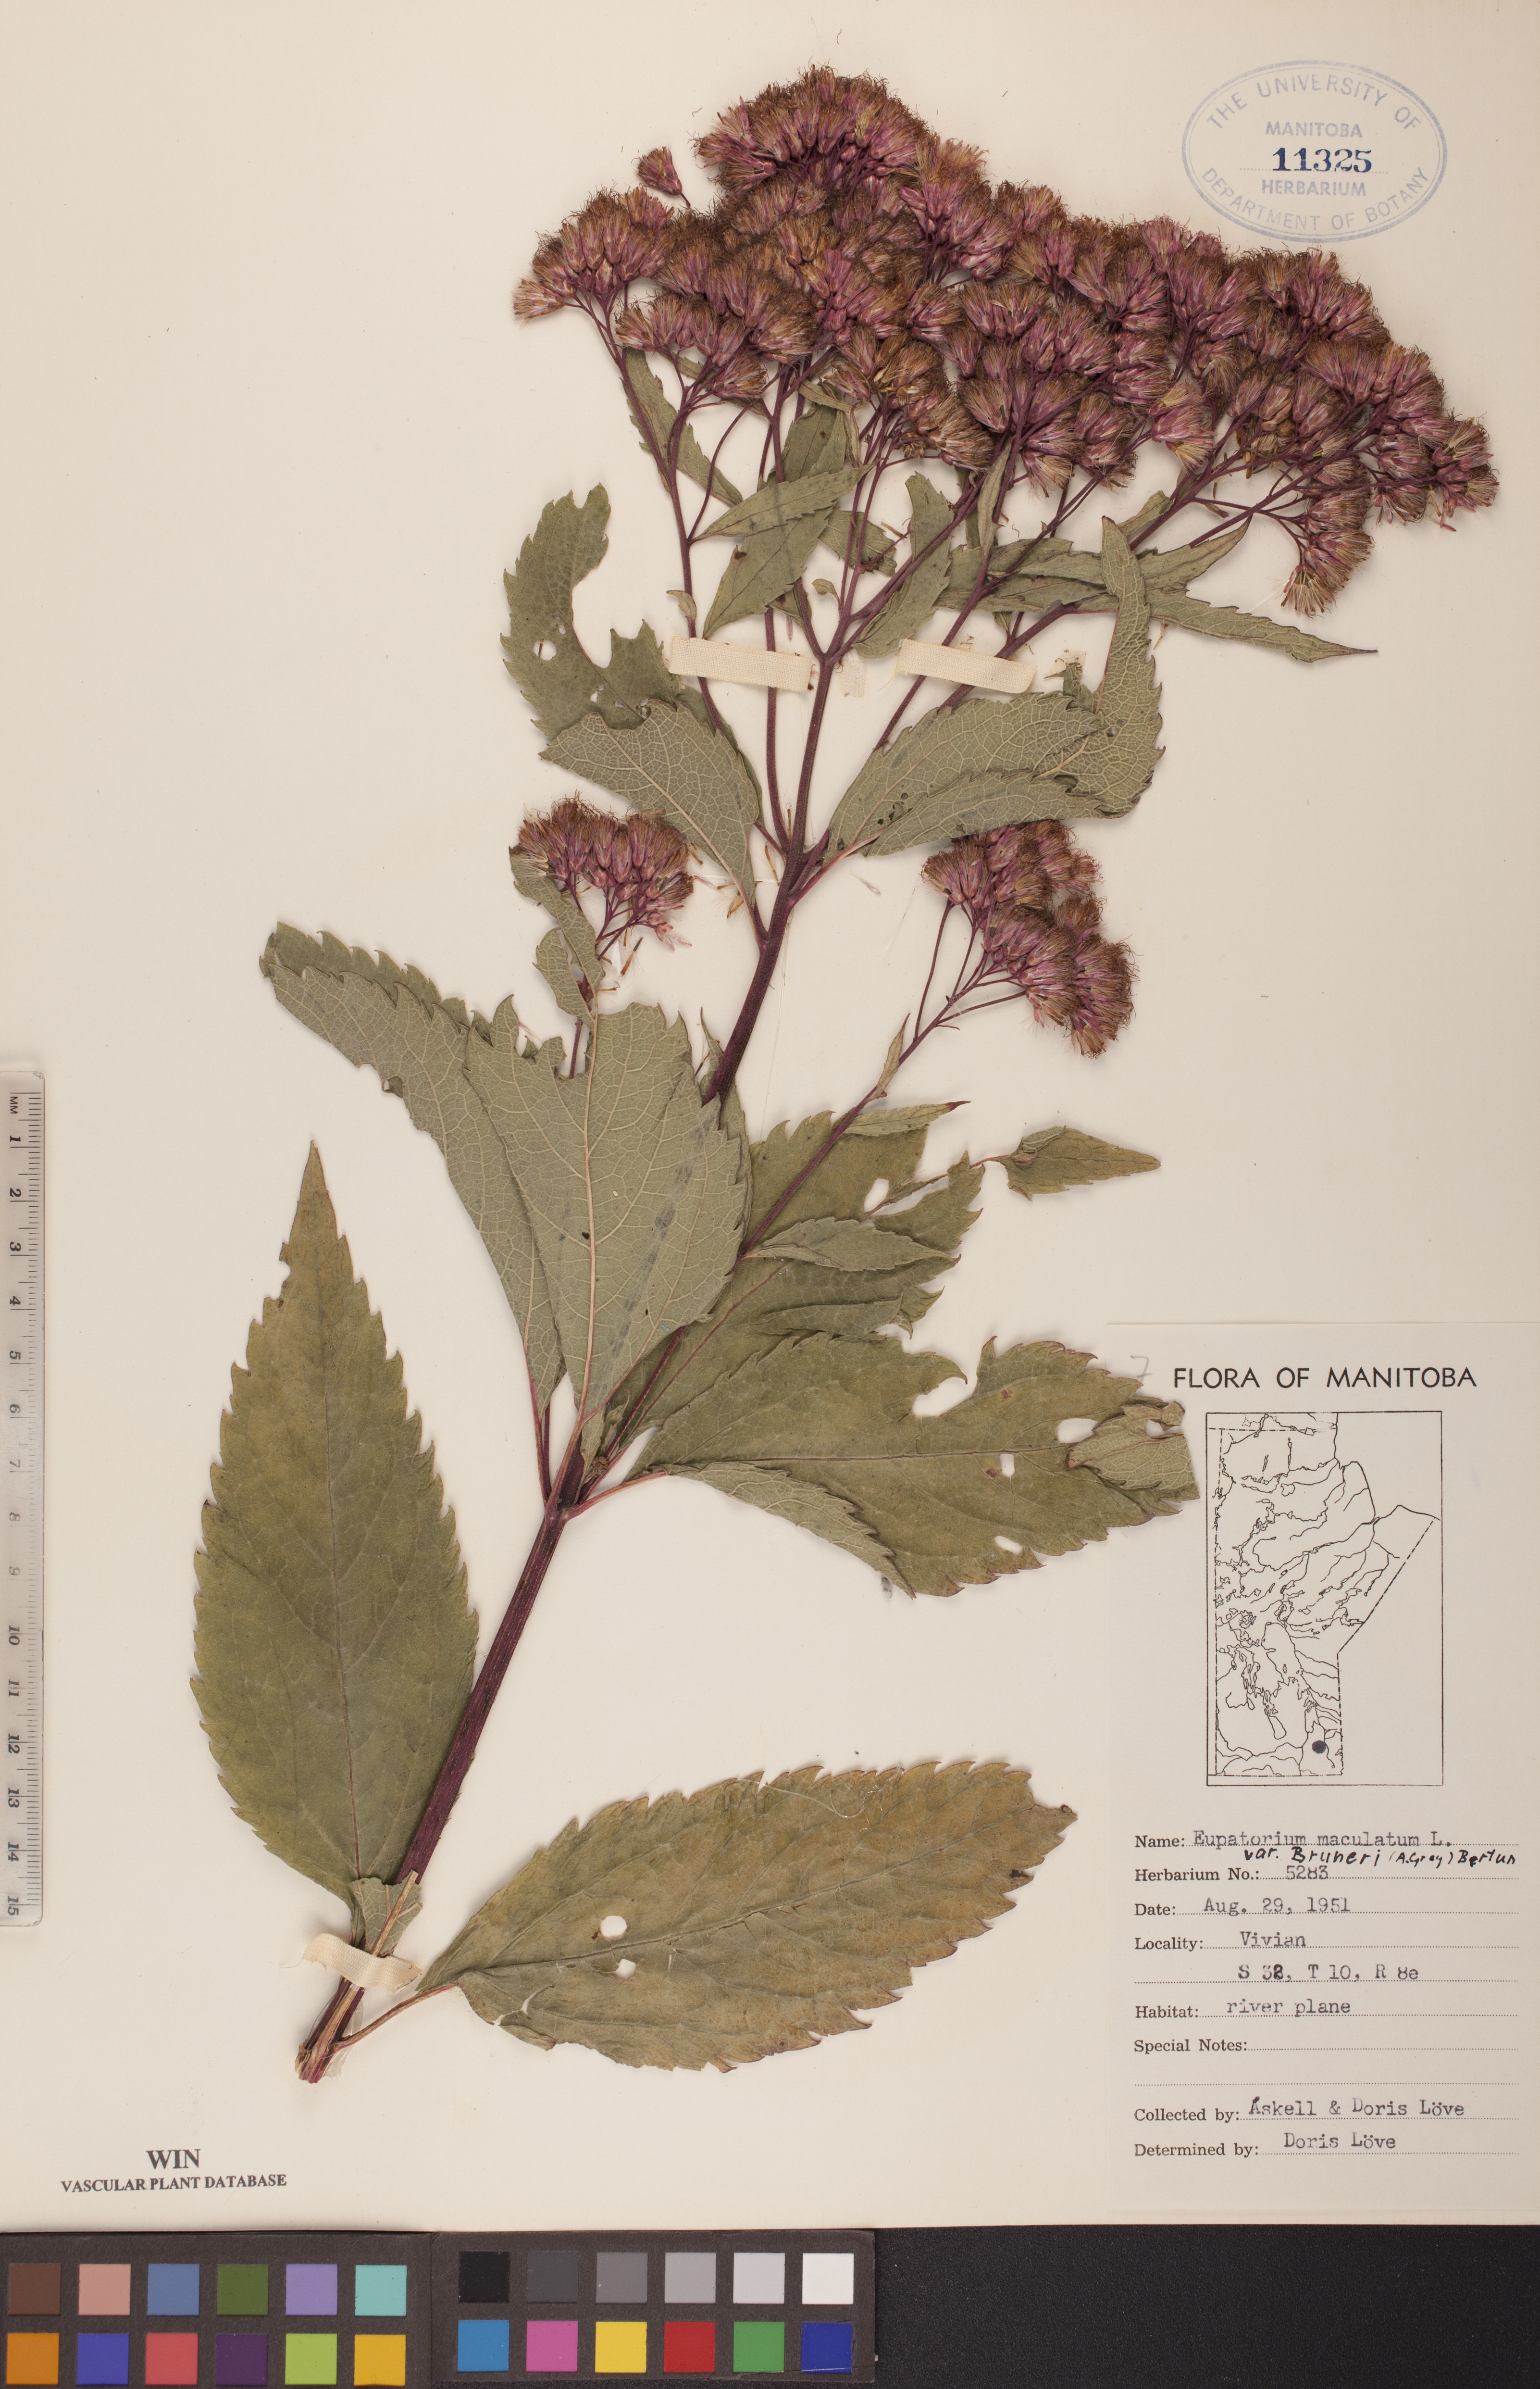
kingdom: Plantae
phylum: Tracheophyta
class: Magnoliopsida
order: Asterales
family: Asteraceae
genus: Eutrochium
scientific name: Eutrochium maculatum
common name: Spotted joe pye weed
